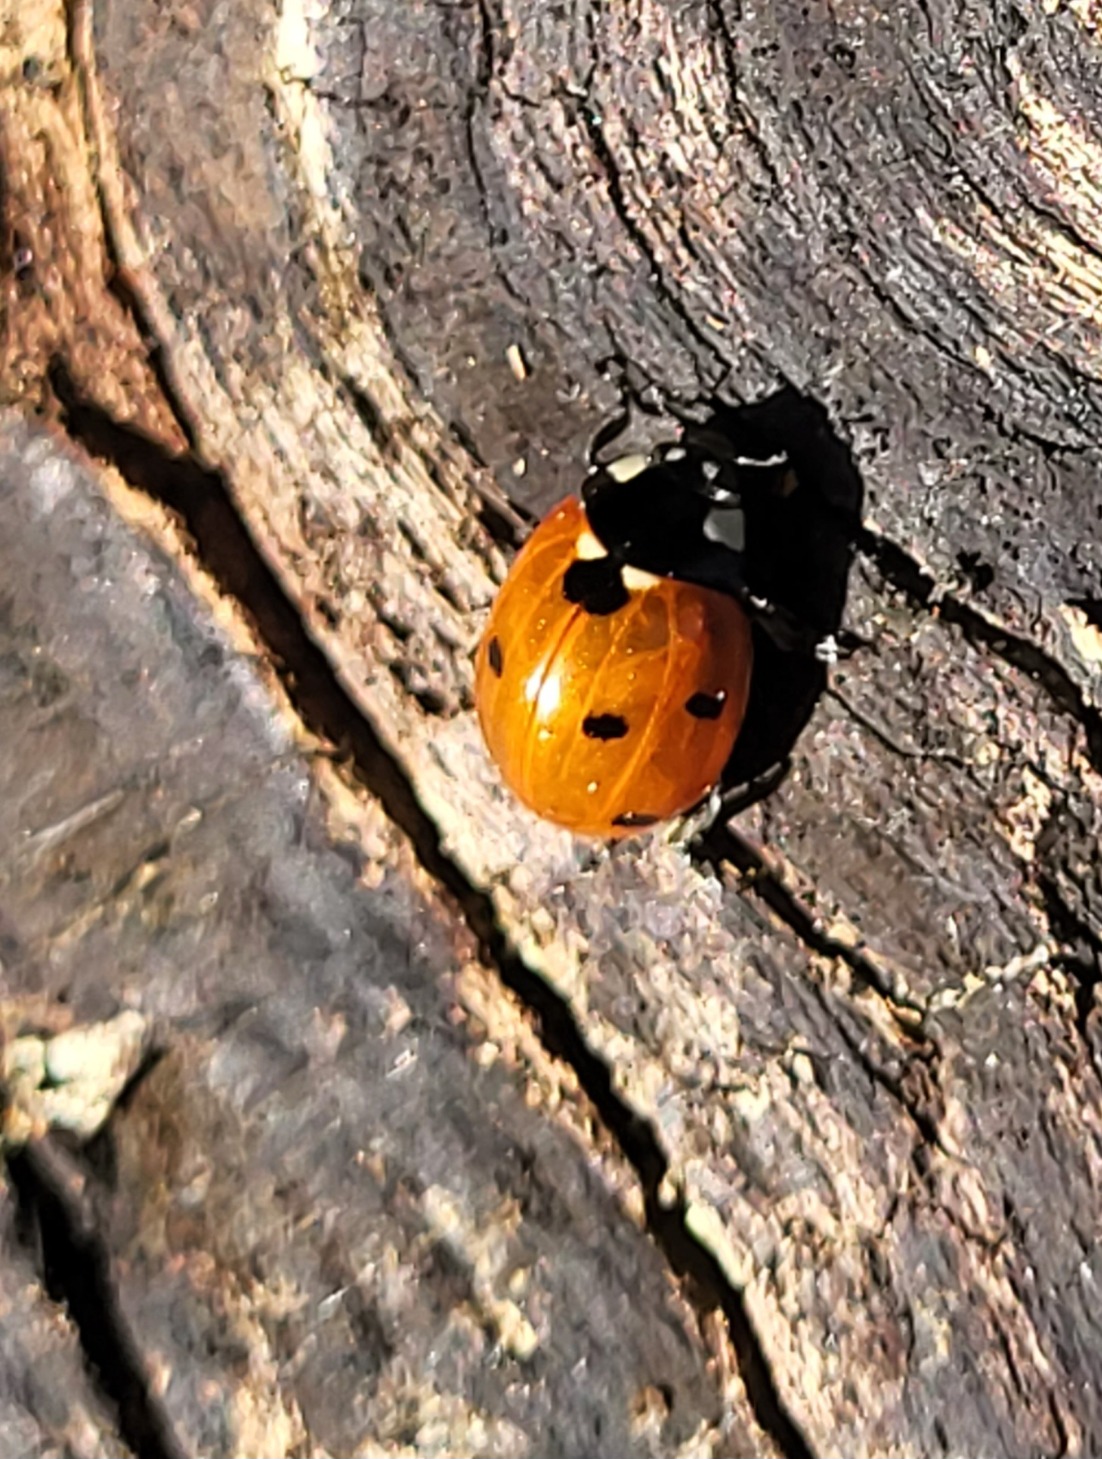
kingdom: Animalia
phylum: Arthropoda
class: Insecta
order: Coleoptera
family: Coccinellidae
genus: Coccinella
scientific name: Coccinella septempunctata
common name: Syvplettet mariehøne
